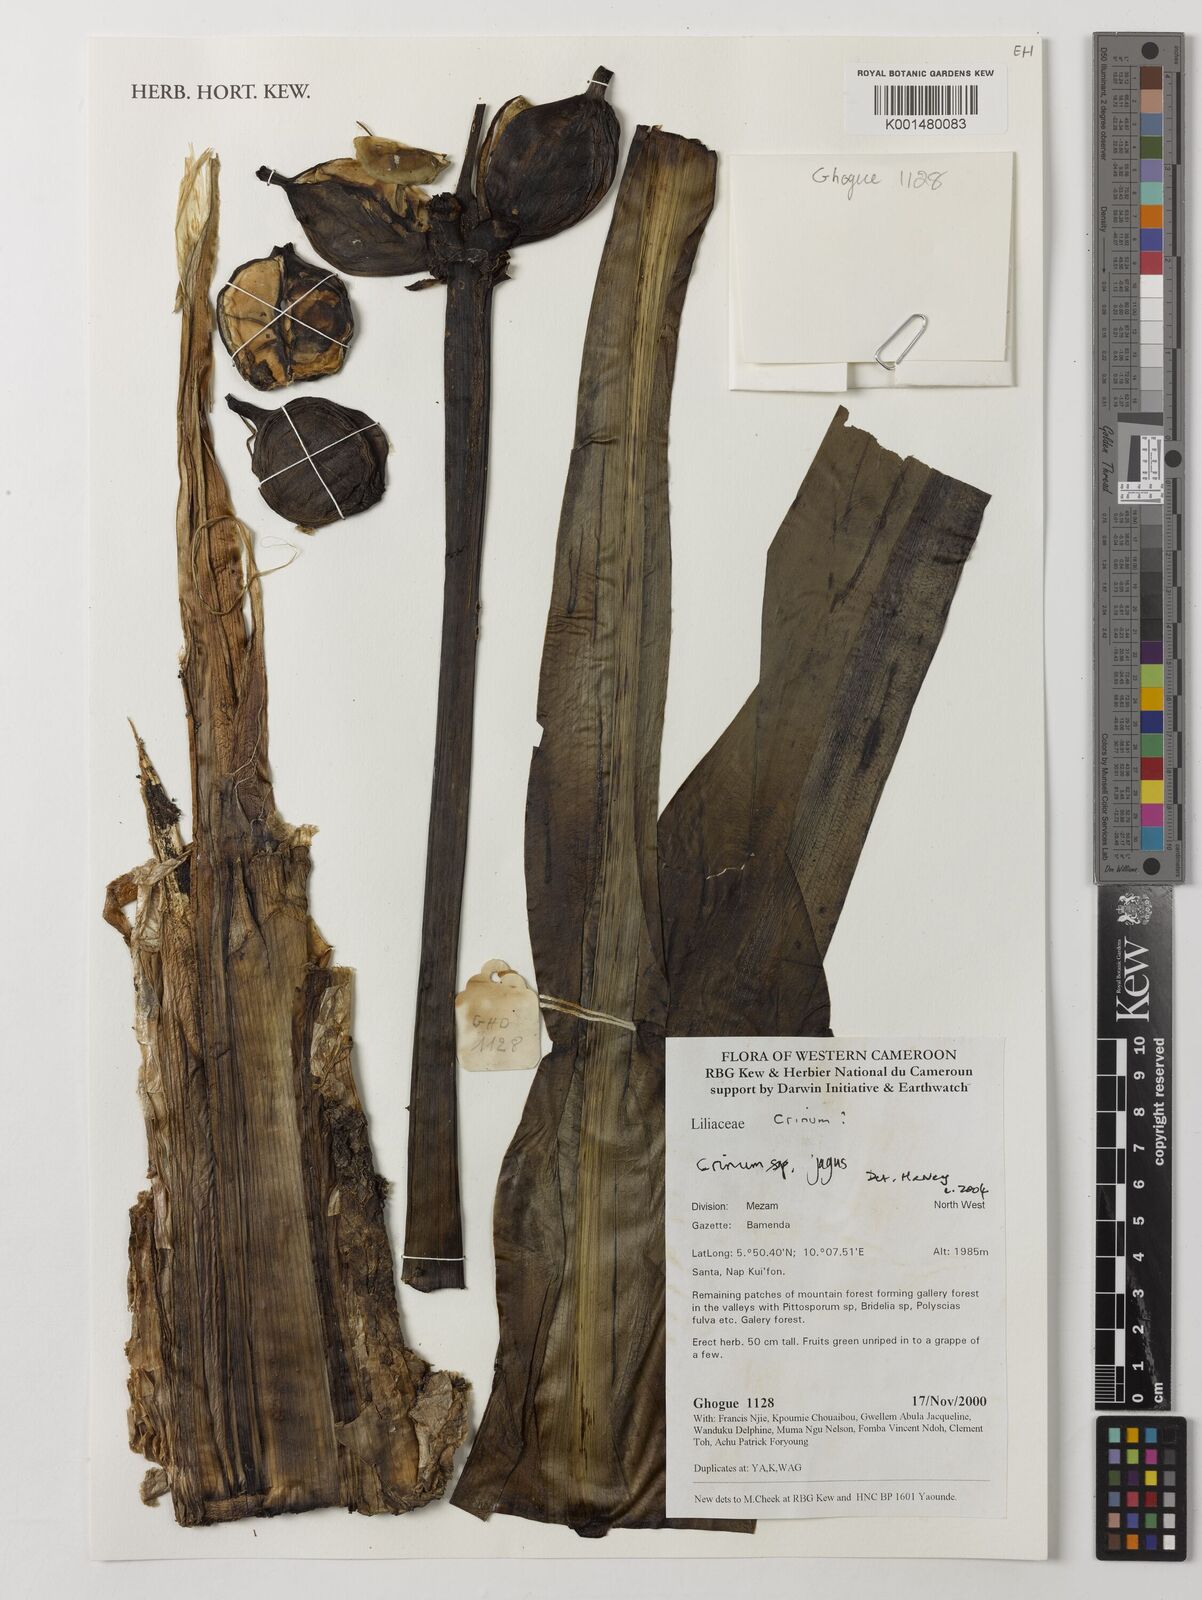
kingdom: Plantae
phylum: Tracheophyta
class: Liliopsida
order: Asparagales
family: Amaryllidaceae
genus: Crinum
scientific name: Crinum jagus
